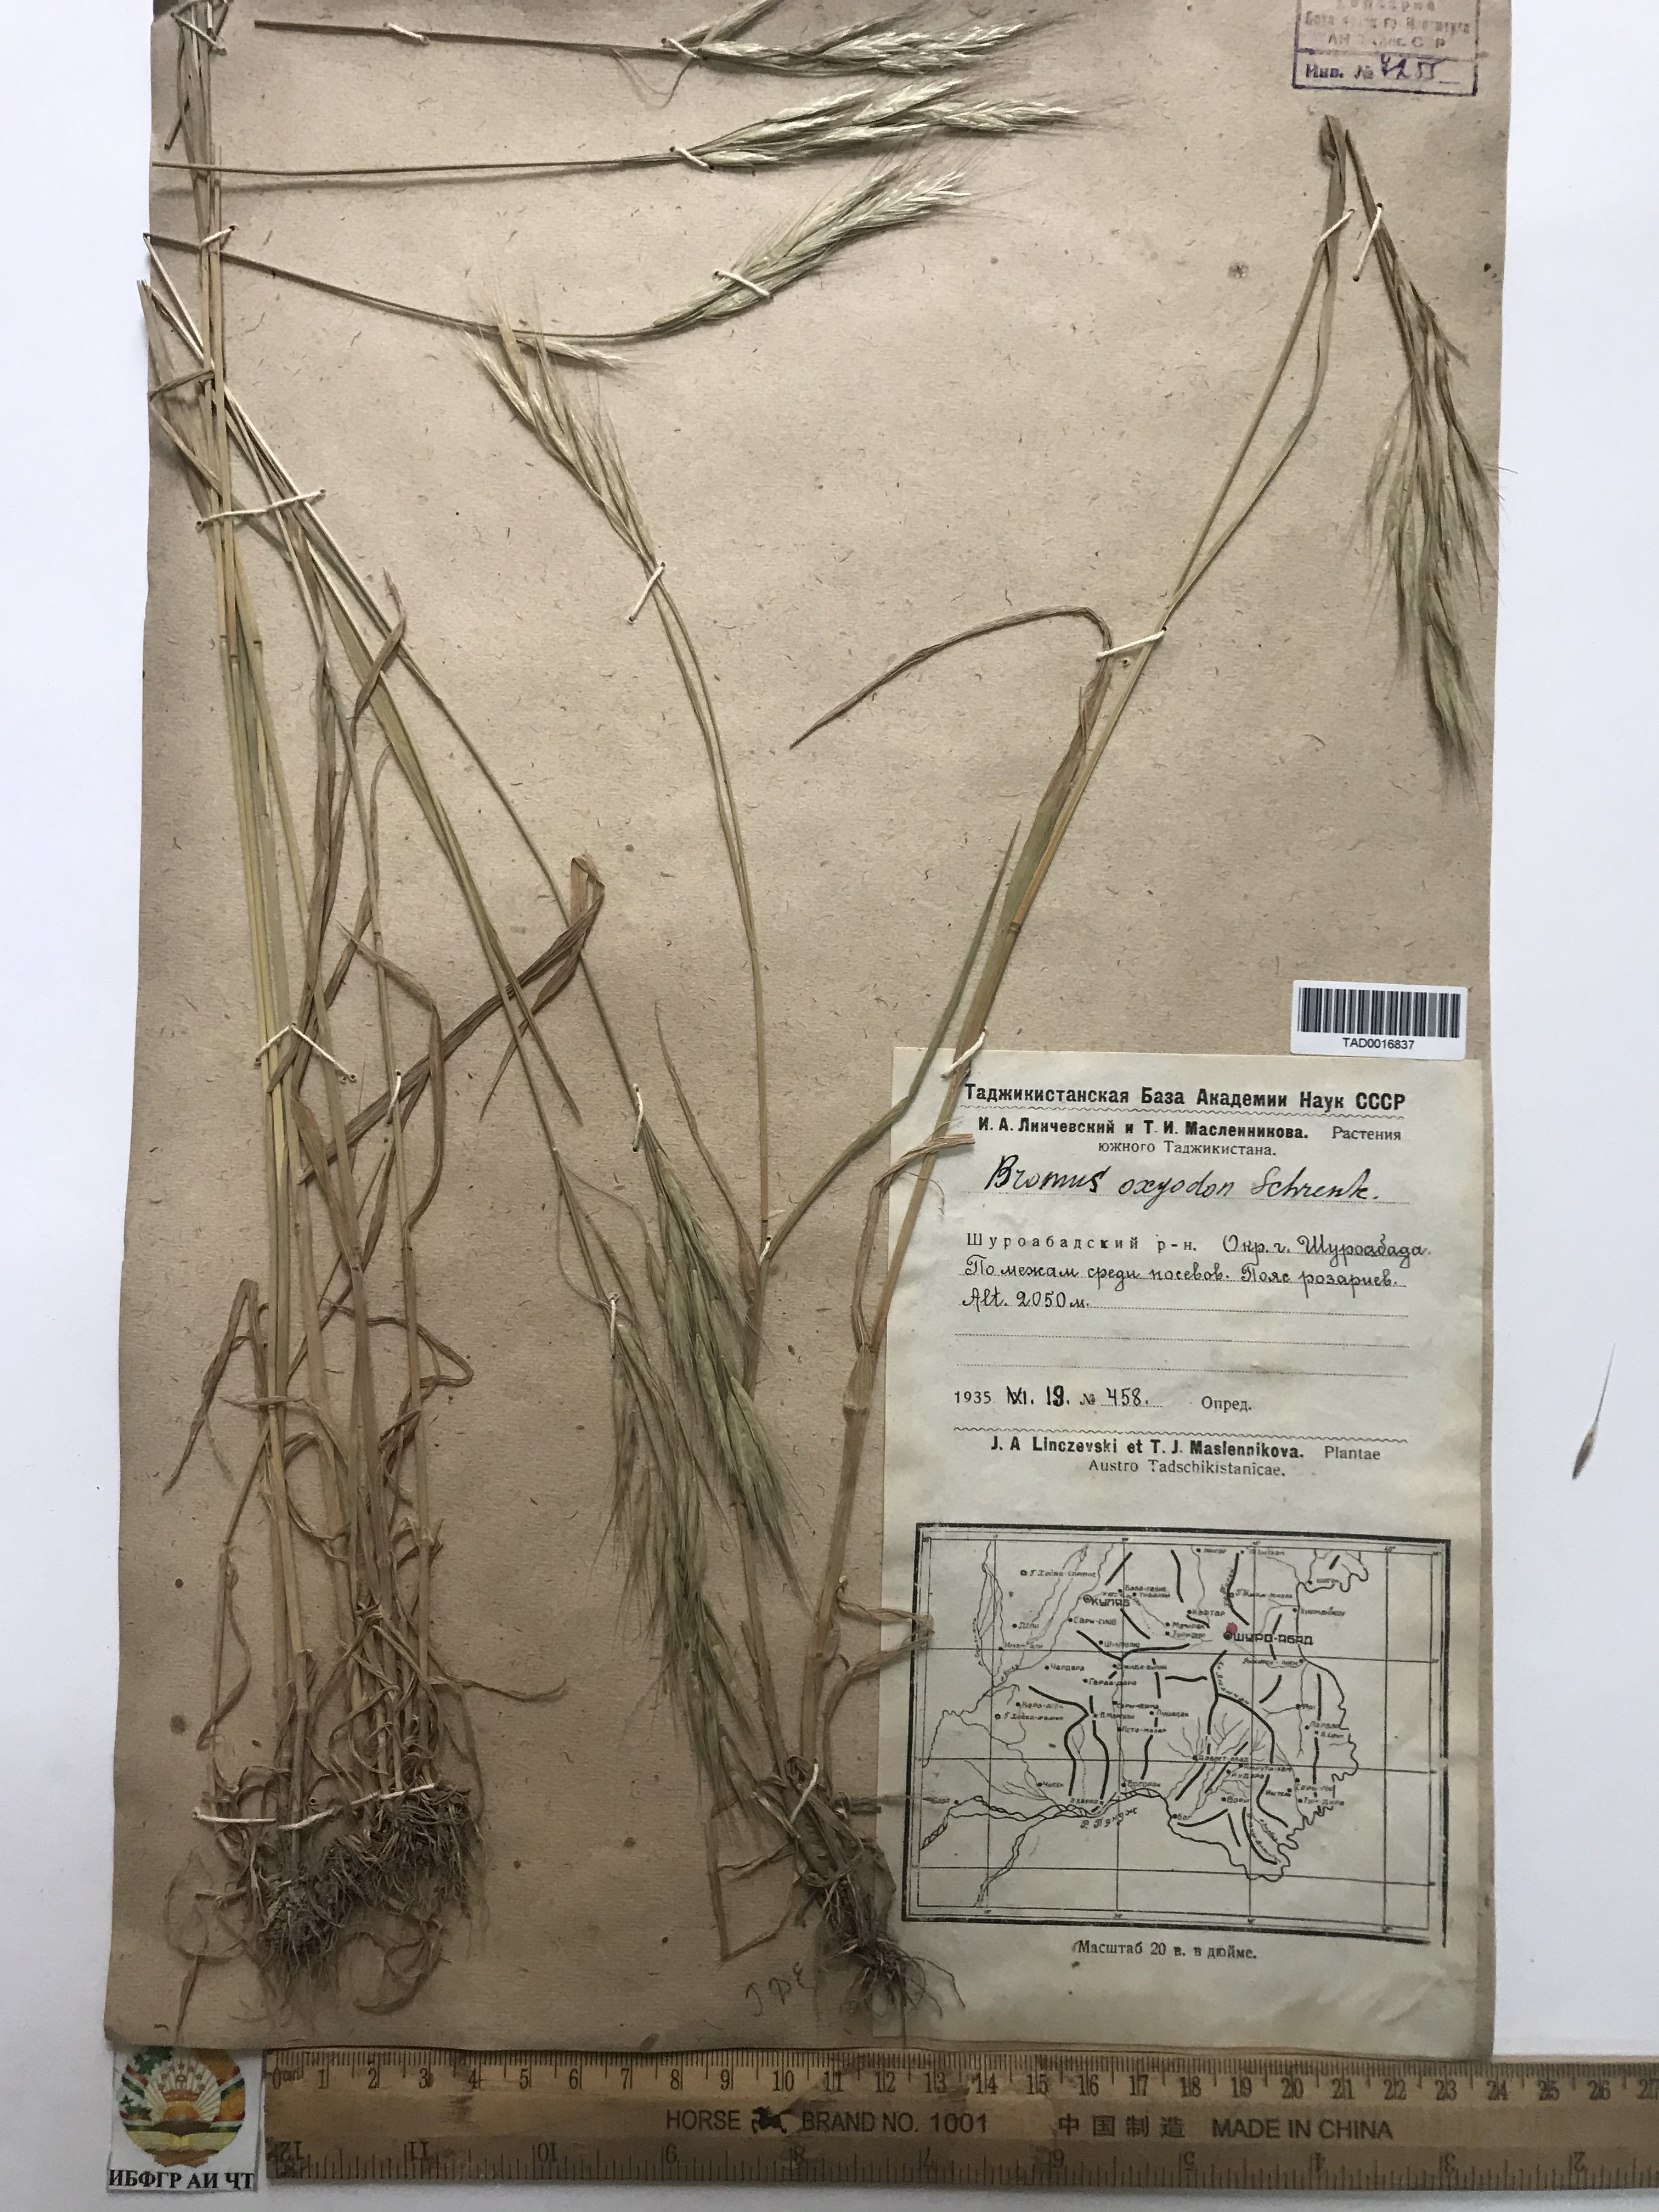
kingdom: Plantae
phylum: Tracheophyta
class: Liliopsida
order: Poales
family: Poaceae
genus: Bromus
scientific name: Bromus oxyodon
